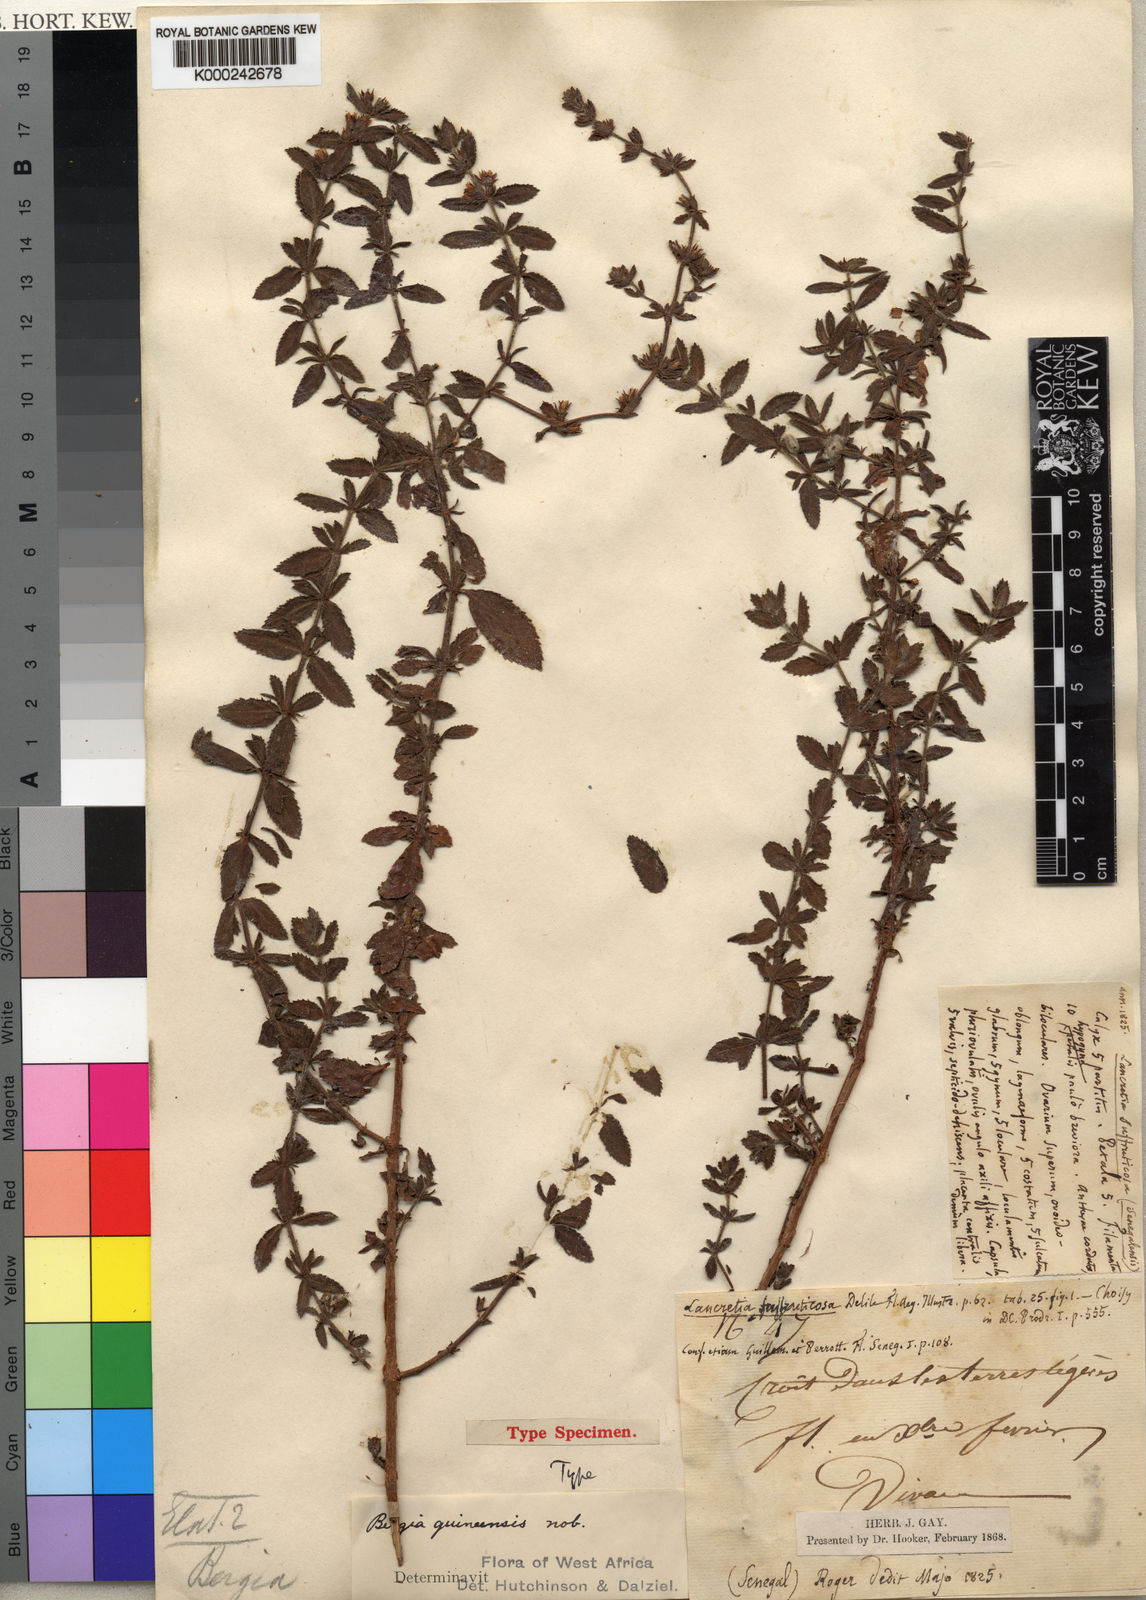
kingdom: Plantae
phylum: Tracheophyta
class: Magnoliopsida
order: Malpighiales
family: Elatinaceae
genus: Bergia
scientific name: Bergia suffruticosa
